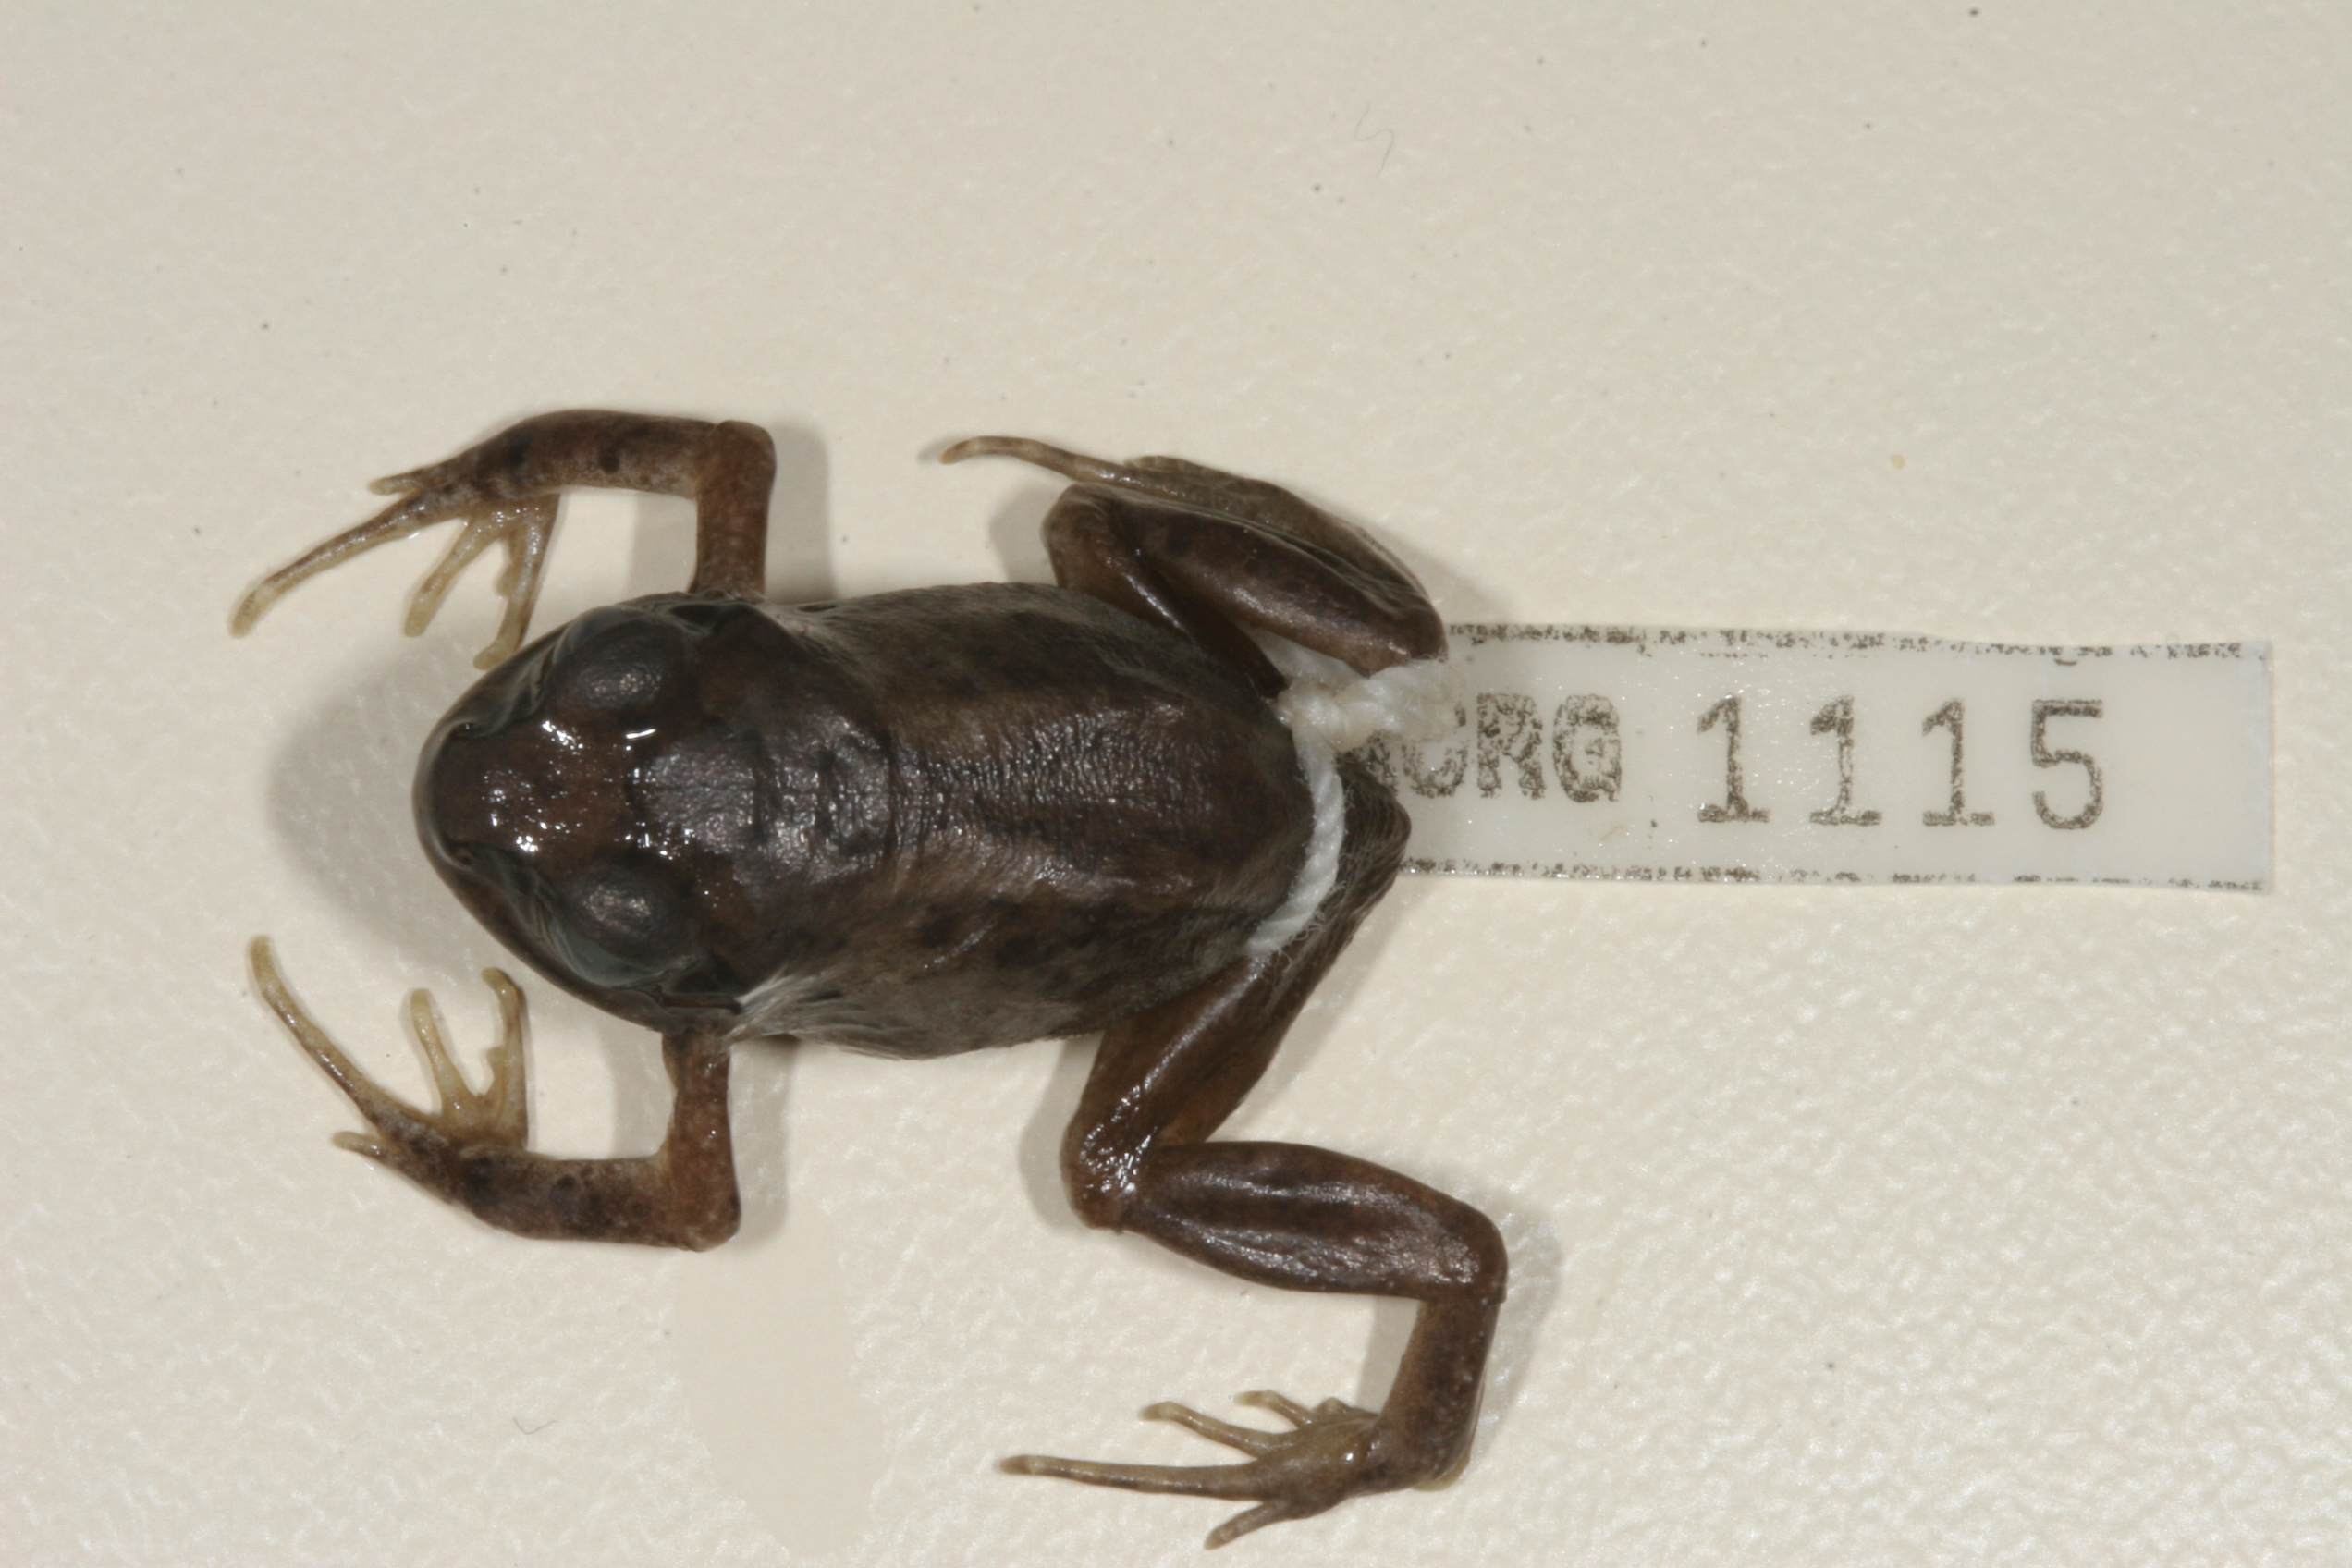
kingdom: Animalia
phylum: Chordata
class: Amphibia
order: Anura
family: Arthroleptidae
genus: Arthroleptis
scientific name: Arthroleptis stenodactylus
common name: Dune squeaker
